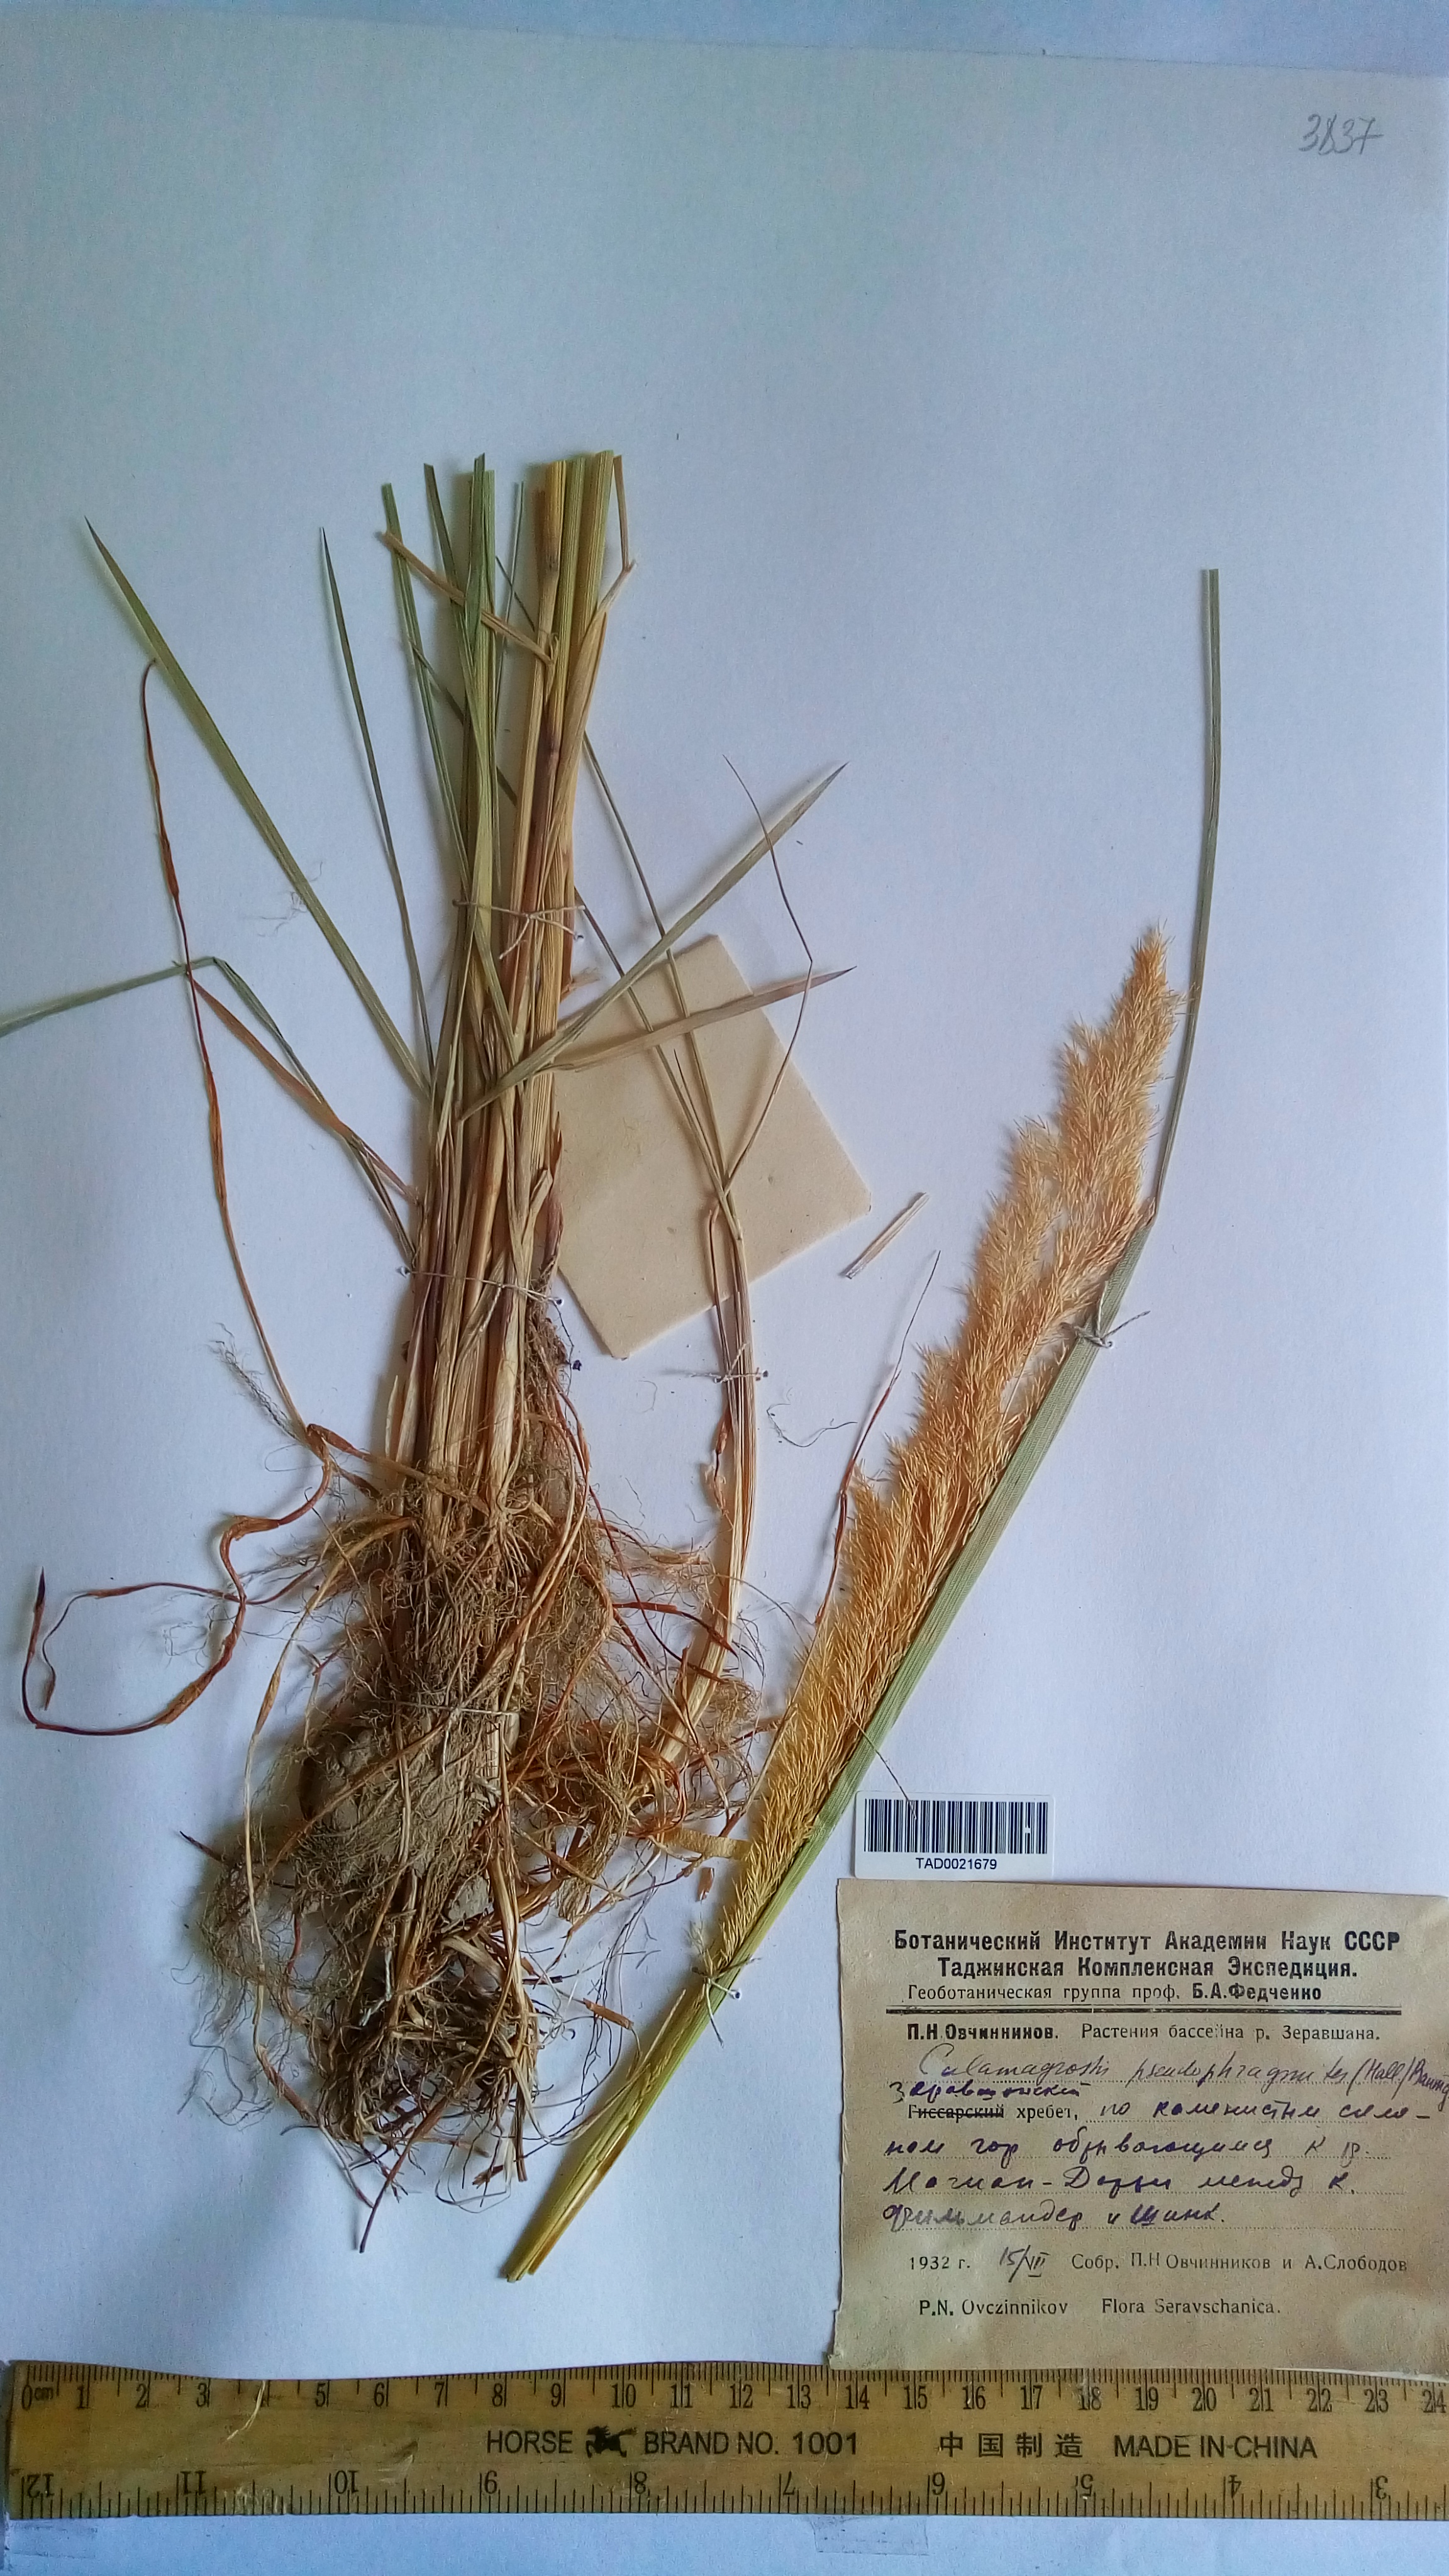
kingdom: Plantae
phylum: Tracheophyta
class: Liliopsida
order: Poales
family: Poaceae
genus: Calamagrostis
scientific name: Calamagrostis pseudophragmites
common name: Coastal small-reed
